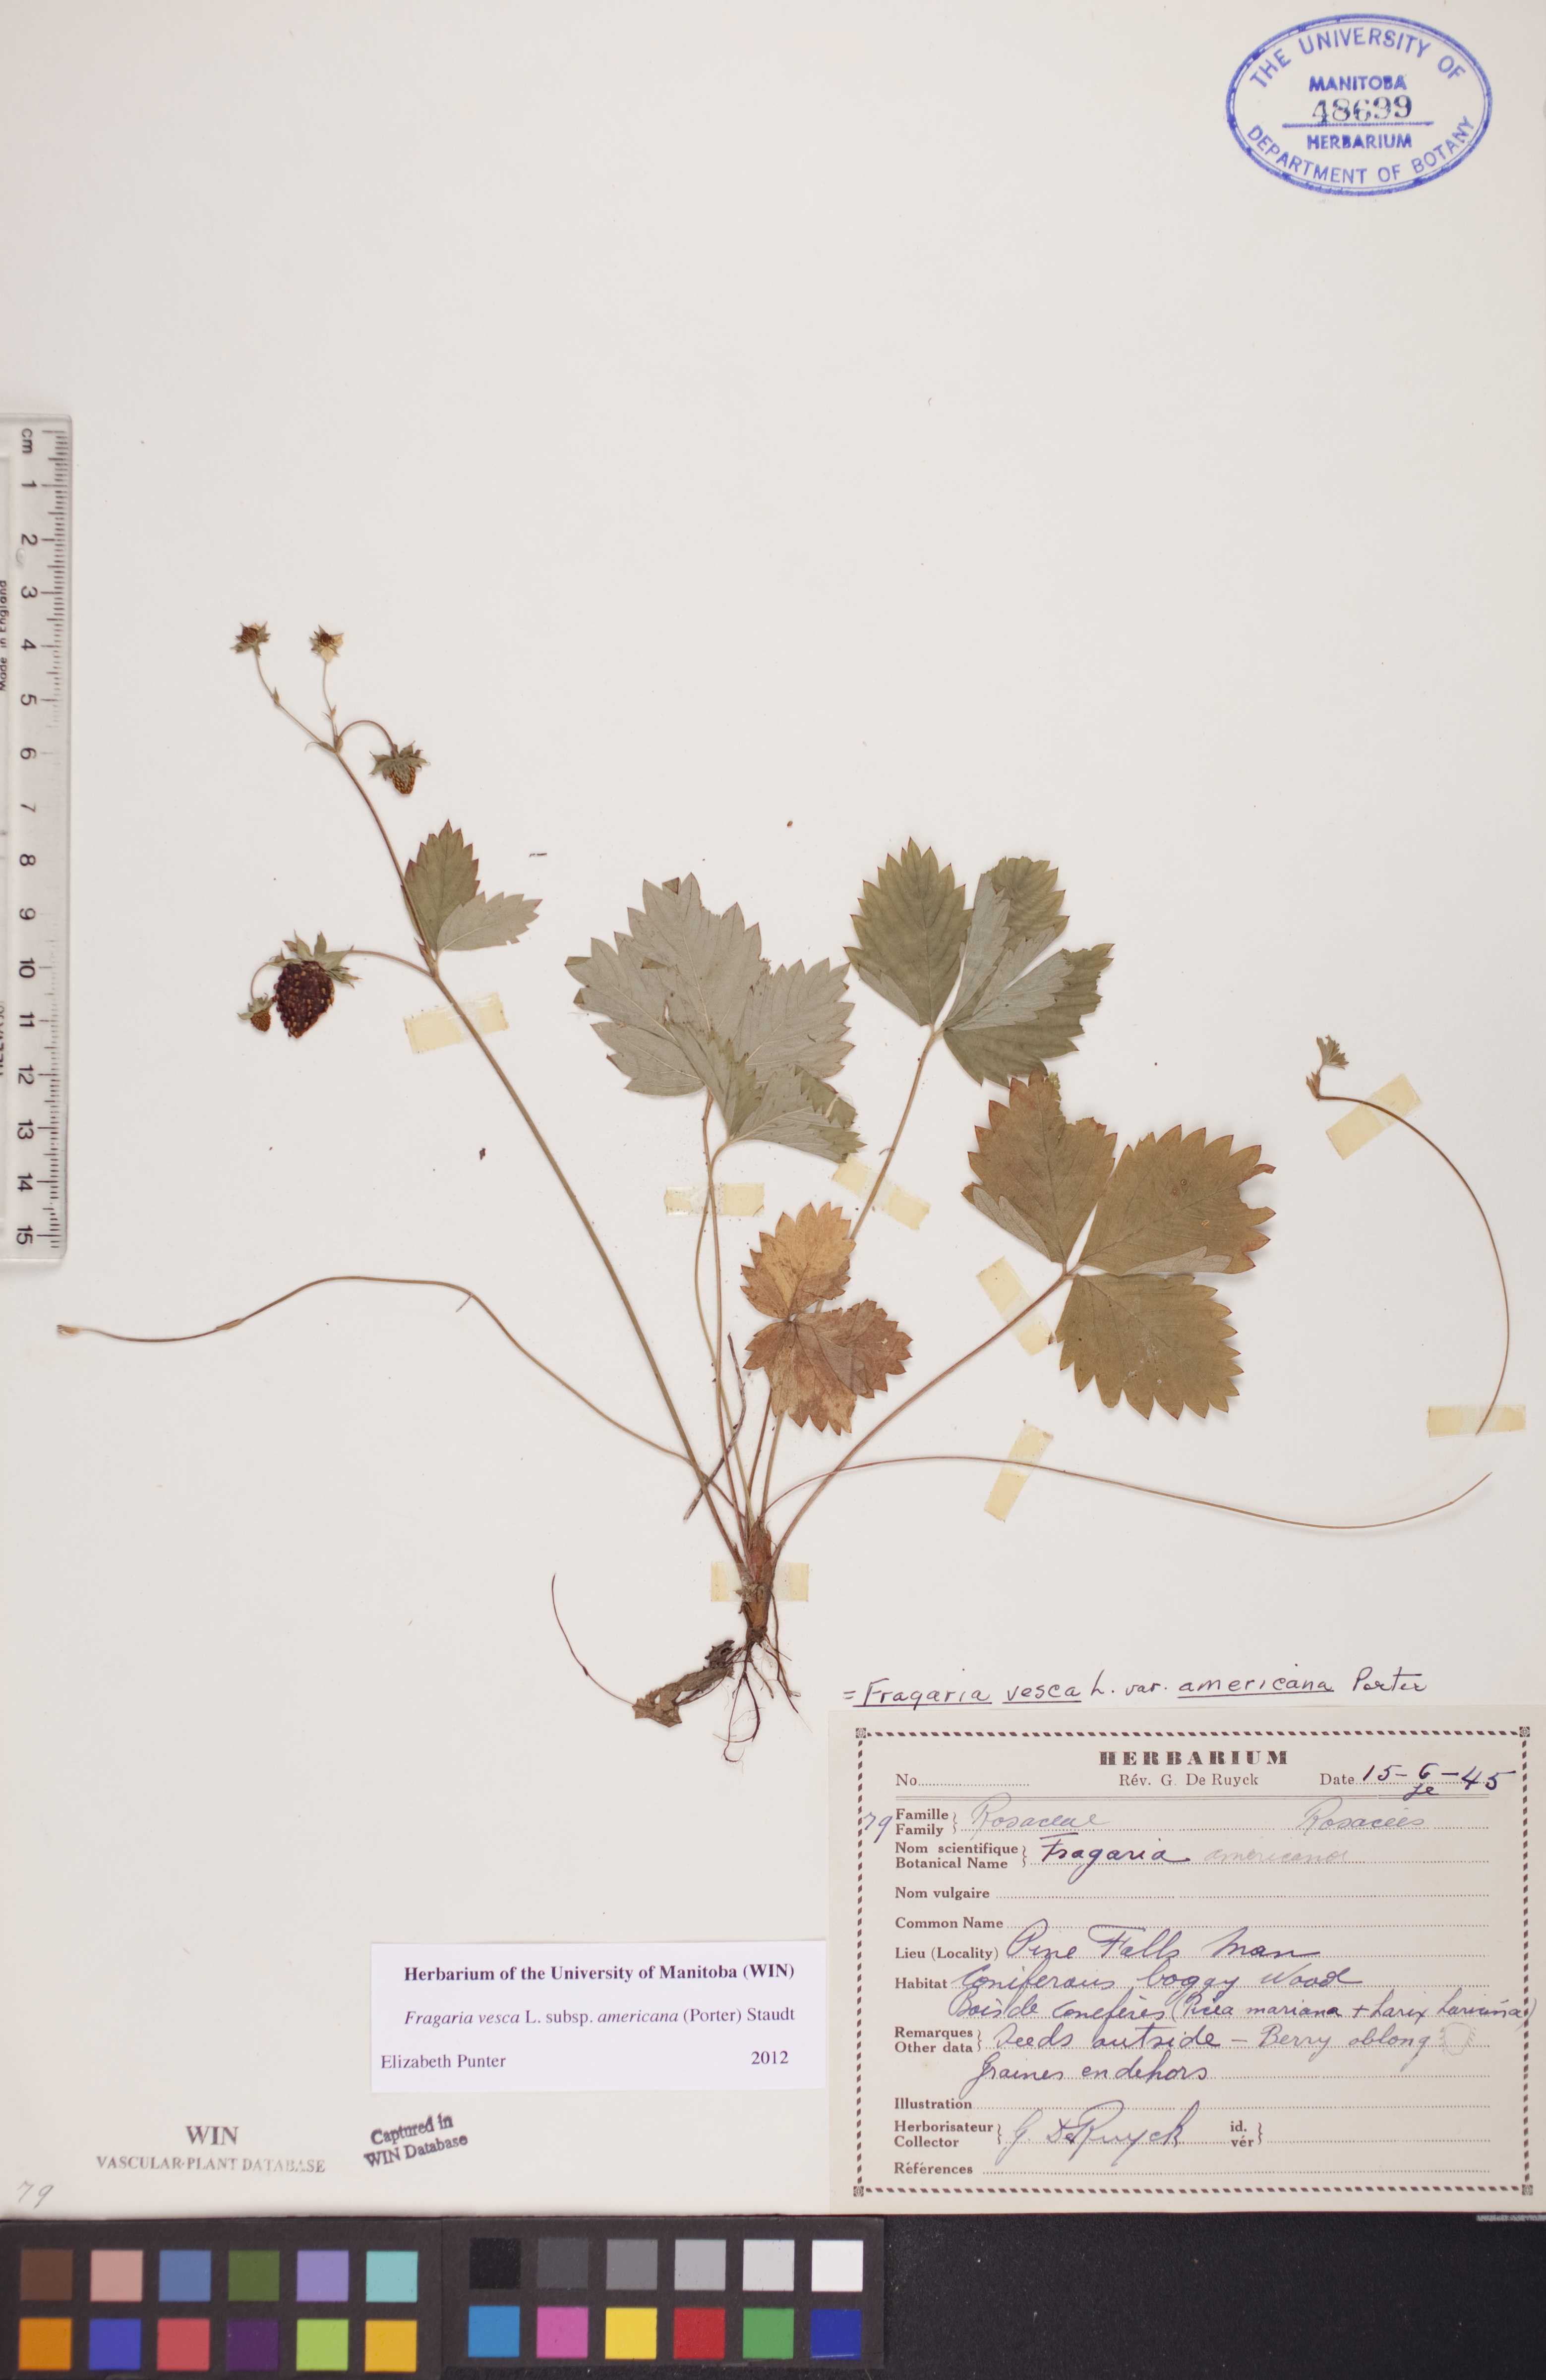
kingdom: Plantae
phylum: Tracheophyta
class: Magnoliopsida
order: Rosales
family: Rosaceae
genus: Fragaria
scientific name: Fragaria vesca
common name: Wild strawberry
